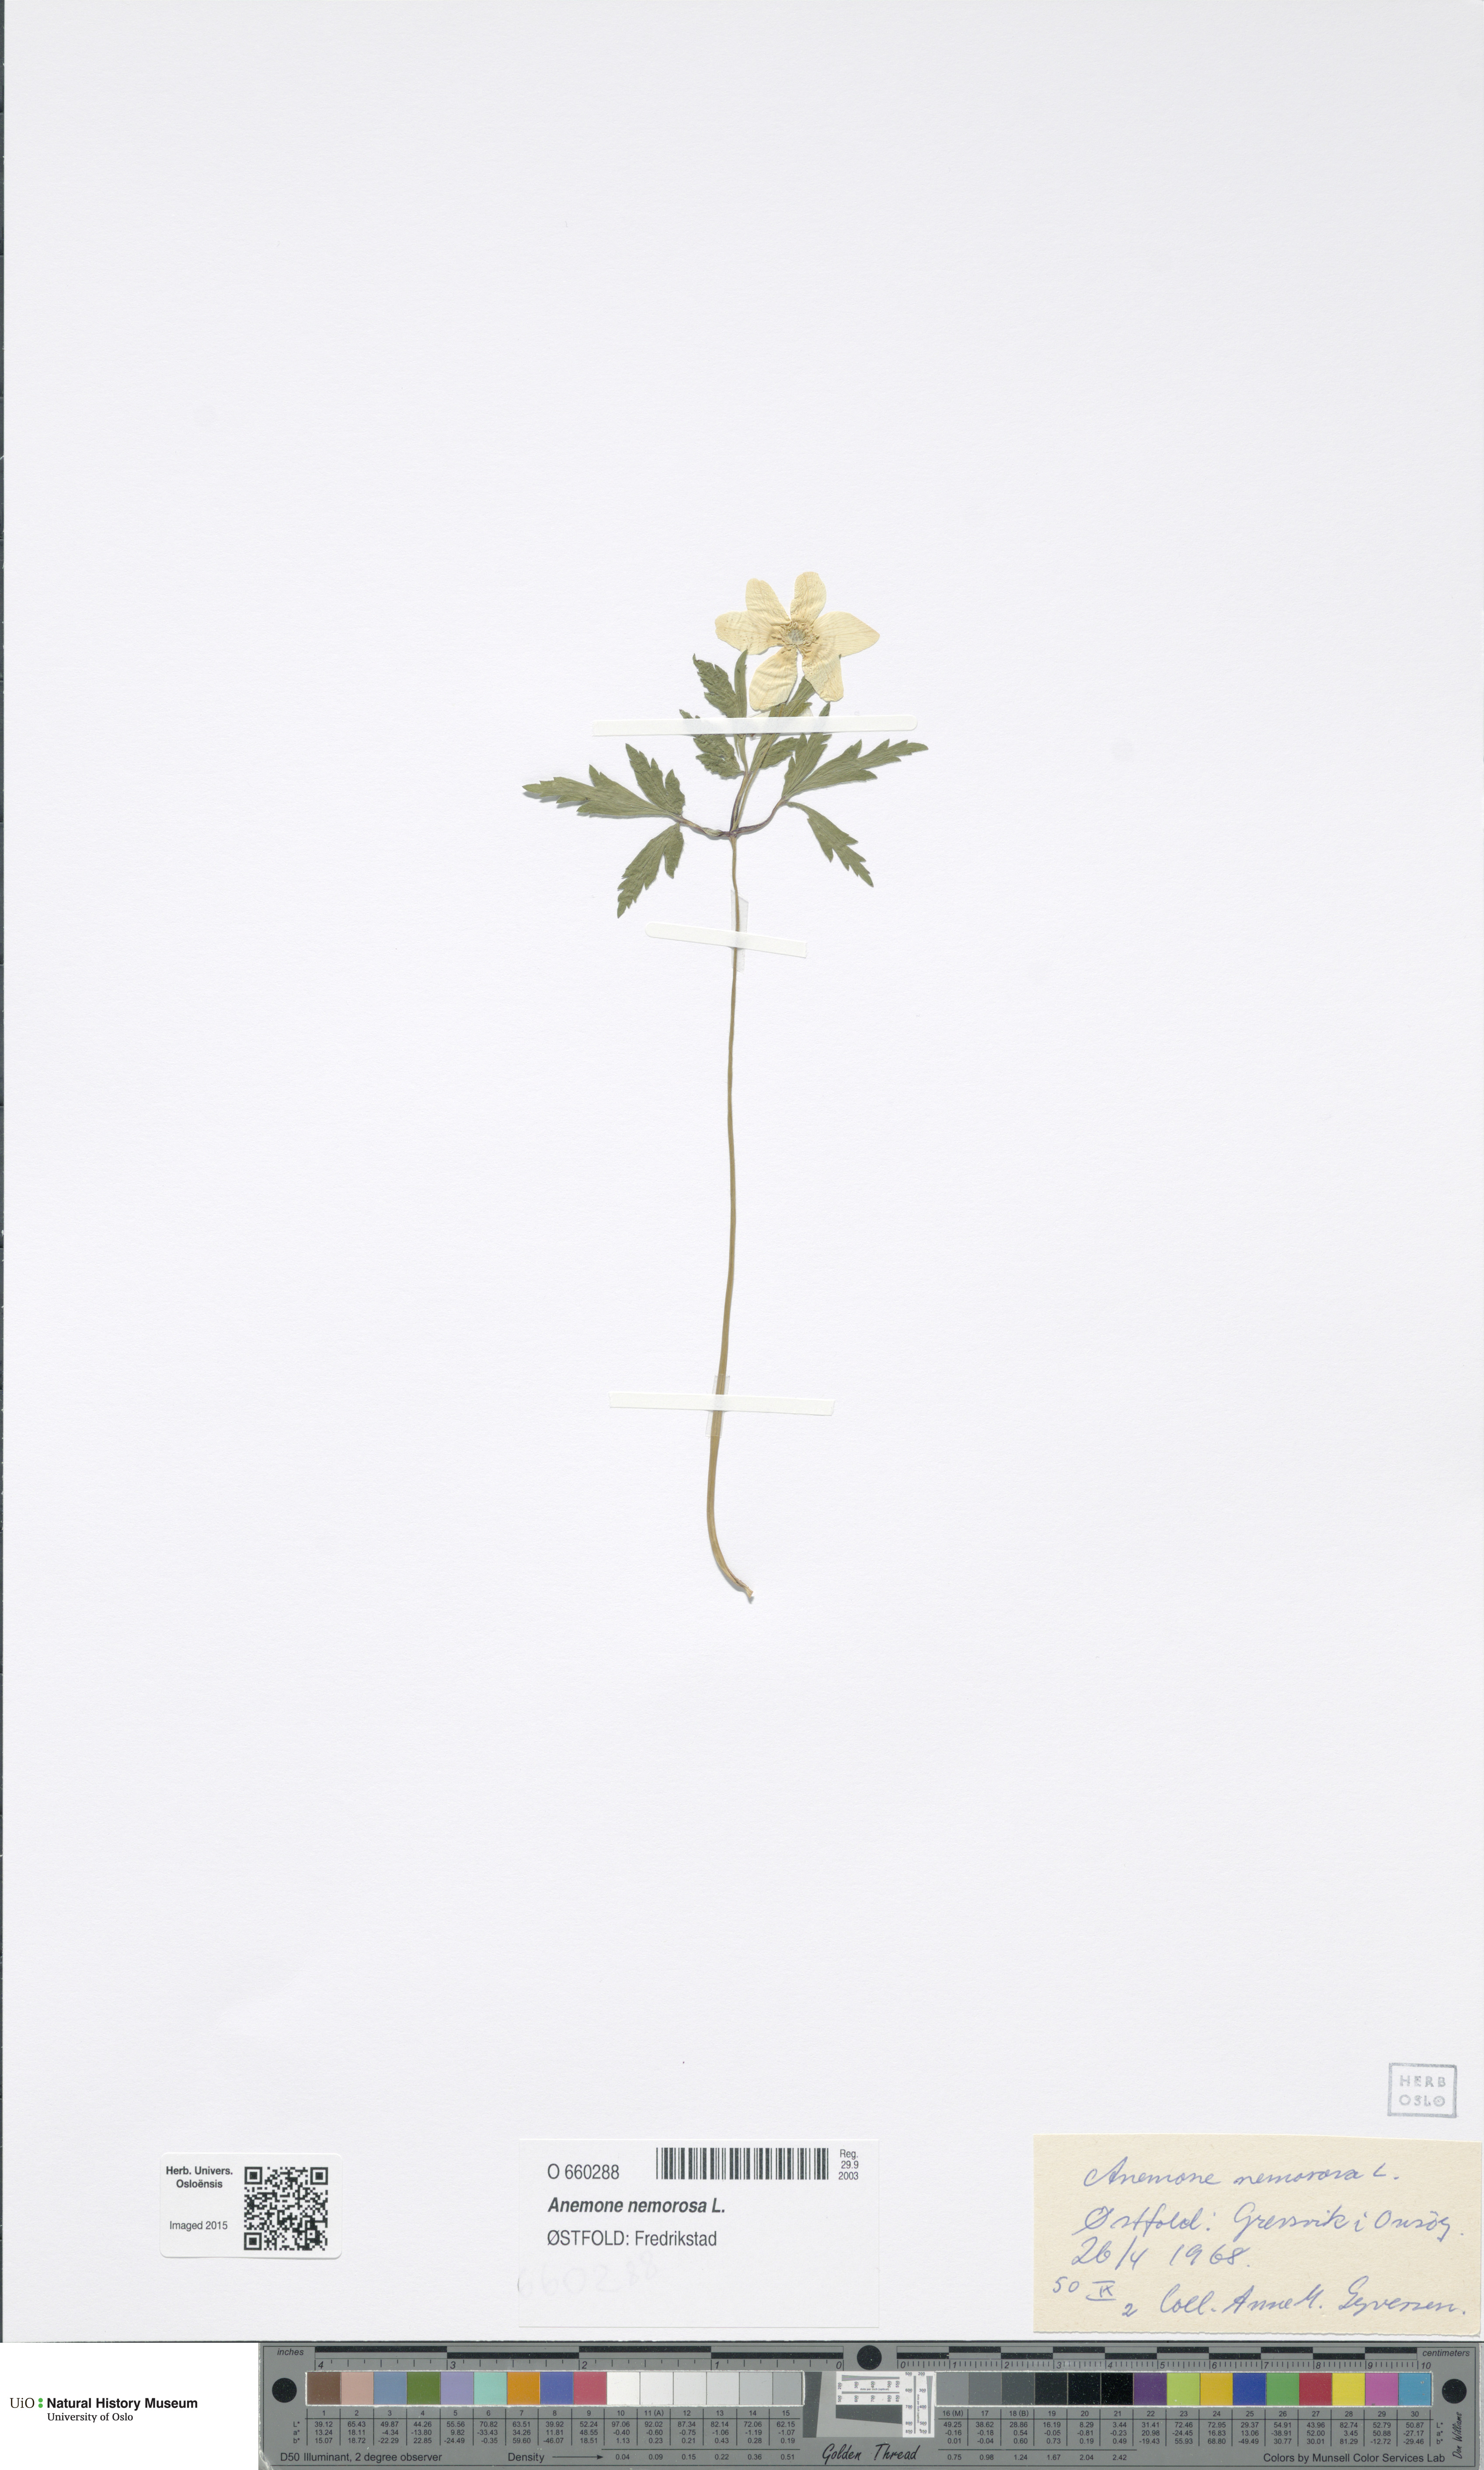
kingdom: Plantae
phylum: Tracheophyta
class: Magnoliopsida
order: Ranunculales
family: Ranunculaceae
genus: Anemone
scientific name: Anemone nemorosa
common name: Wood anemone
